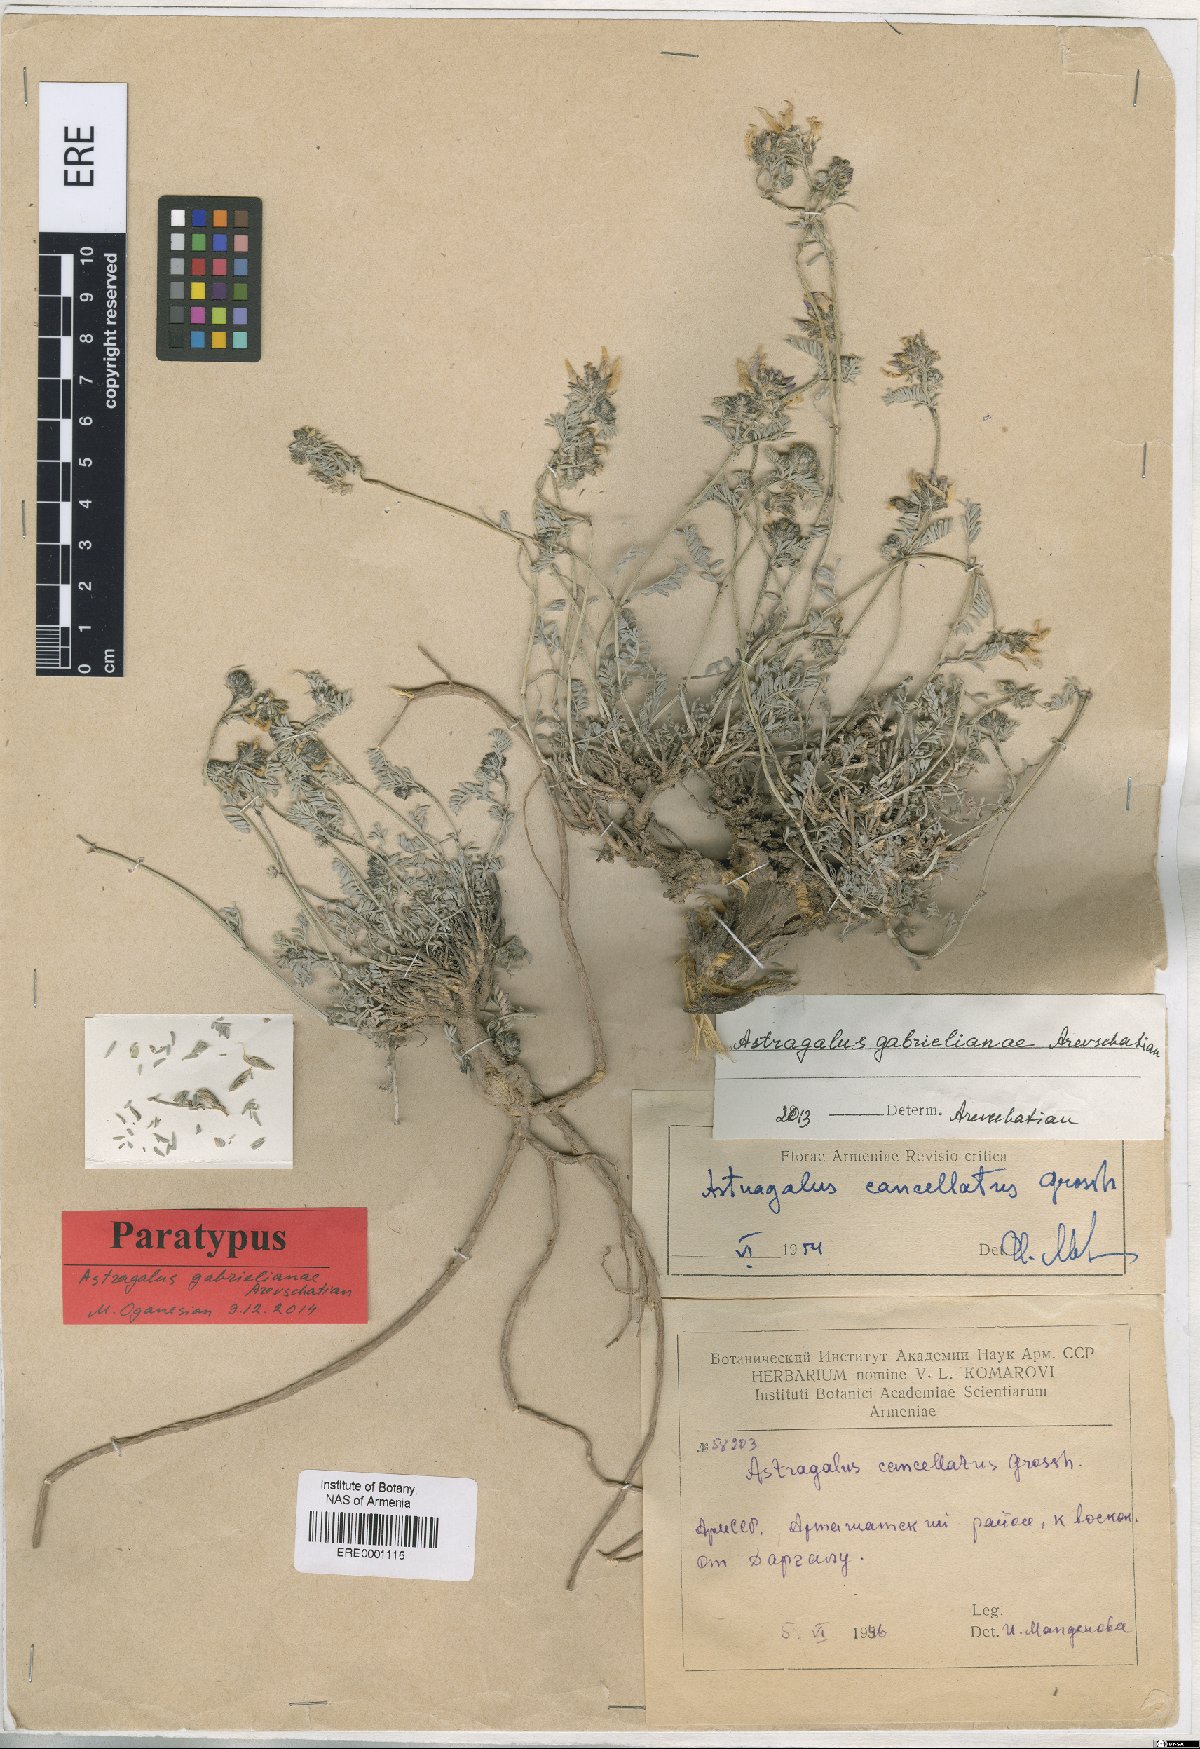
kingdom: Plantae
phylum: Tracheophyta
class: Magnoliopsida
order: Fabales
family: Fabaceae
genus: Astragalus
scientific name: Astragalus gabrelianae
